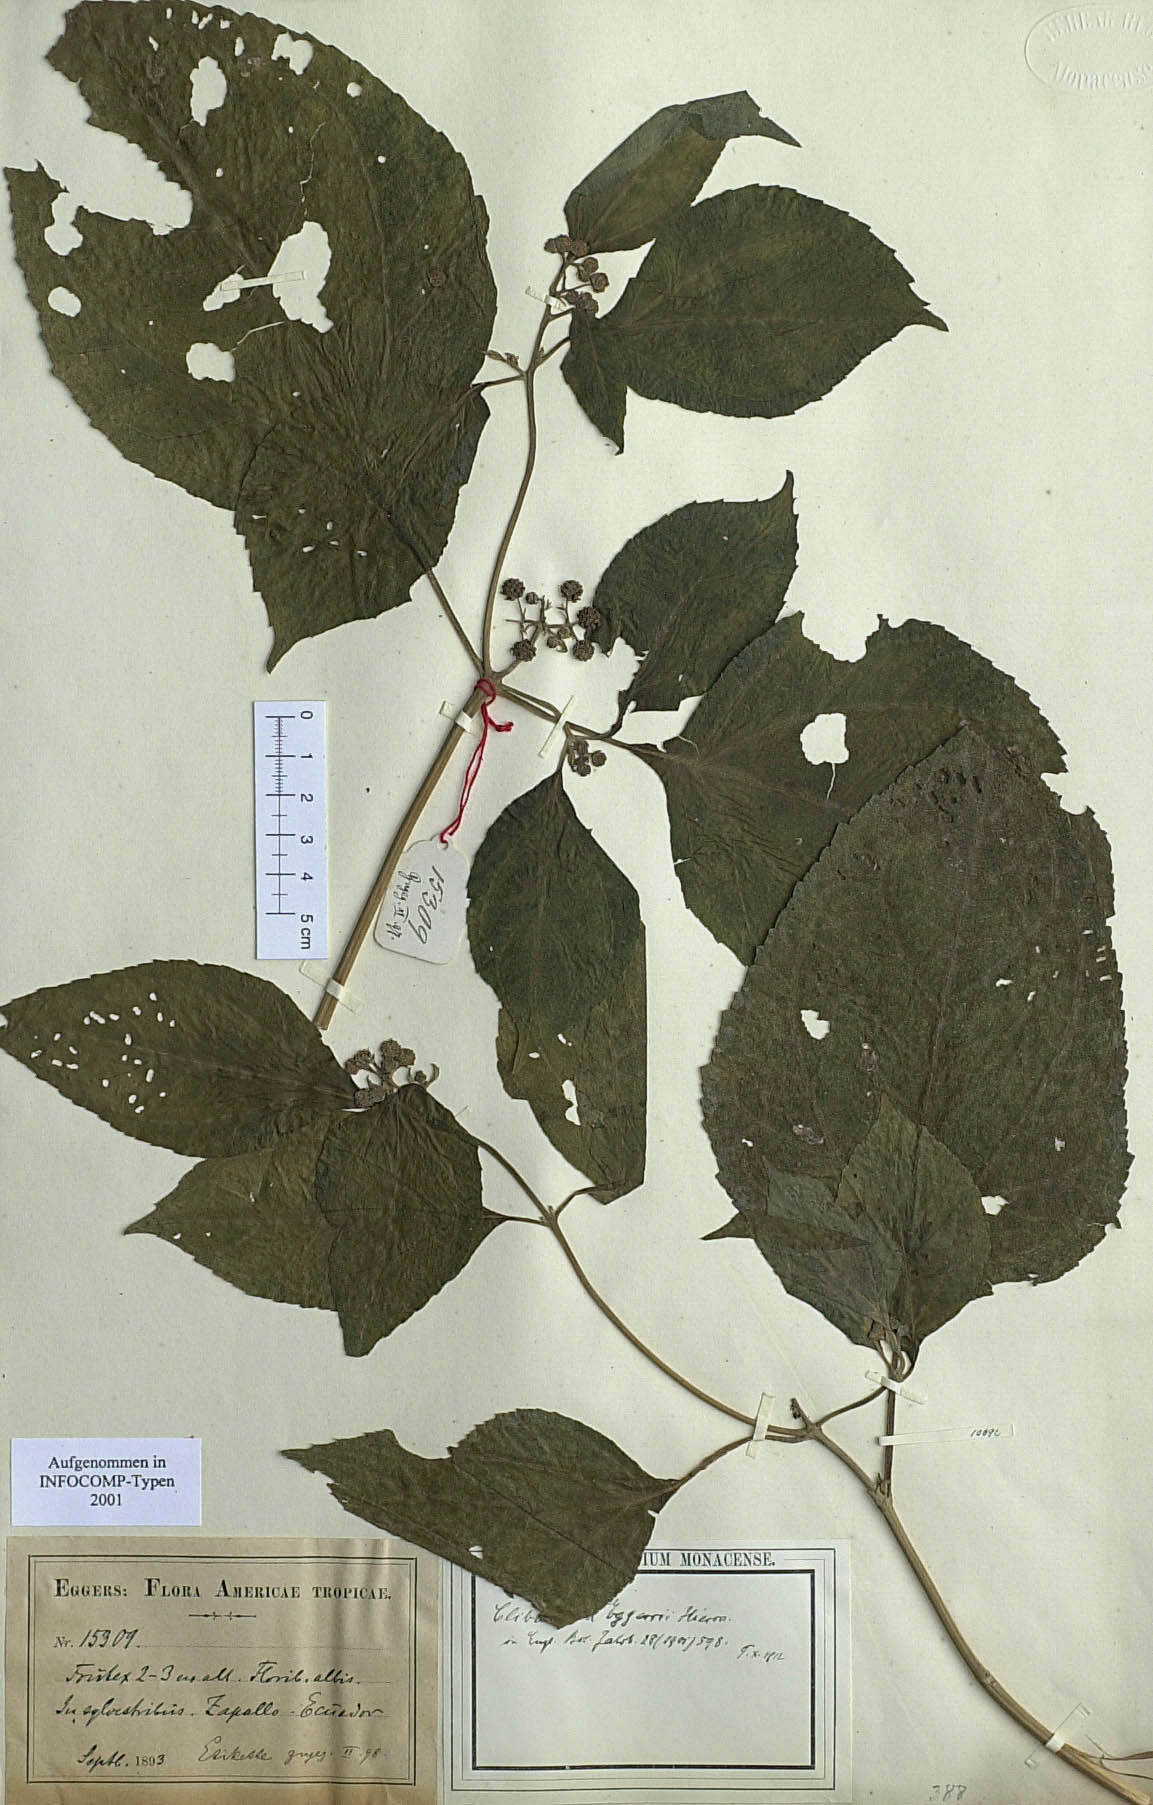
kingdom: Plantae
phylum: Tracheophyta
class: Magnoliopsida
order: Asterales
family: Asteraceae
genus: Clibadium
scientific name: Clibadium eggersii
